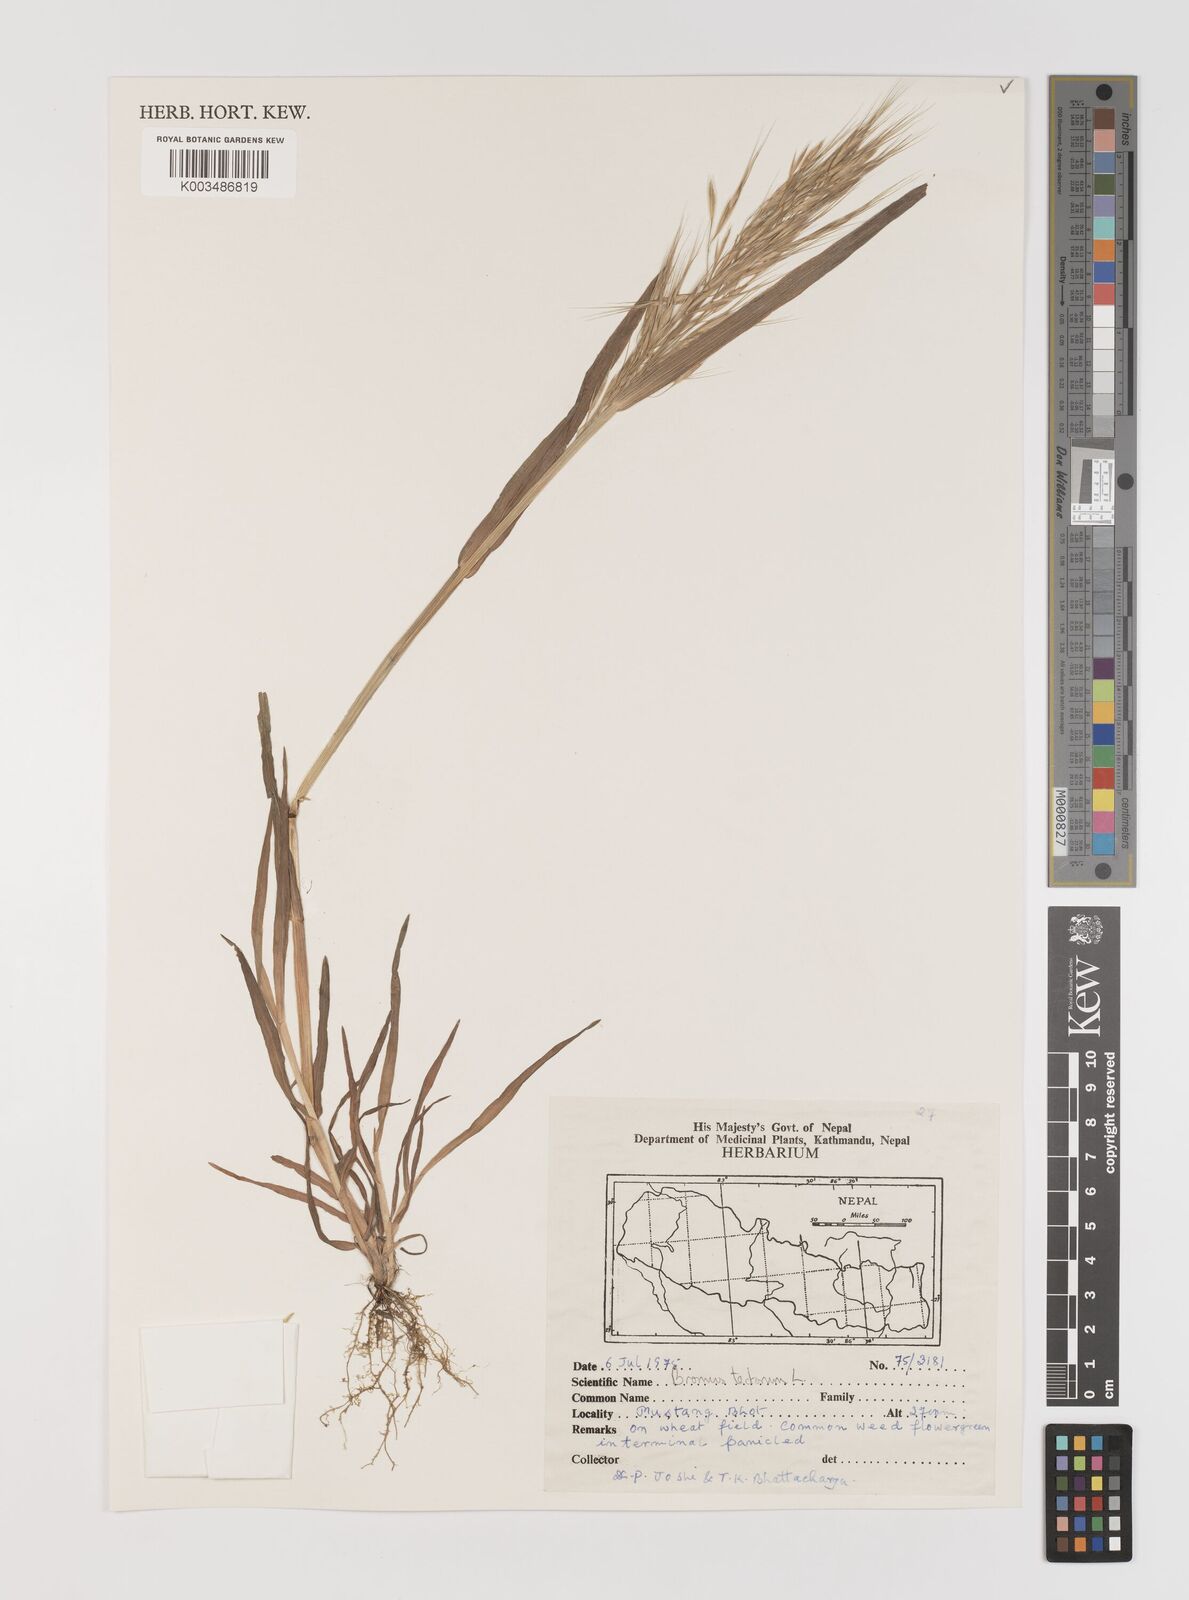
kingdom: Plantae
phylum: Tracheophyta
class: Liliopsida
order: Poales
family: Poaceae
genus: Bromus
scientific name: Bromus tectorum
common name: Cheatgrass
